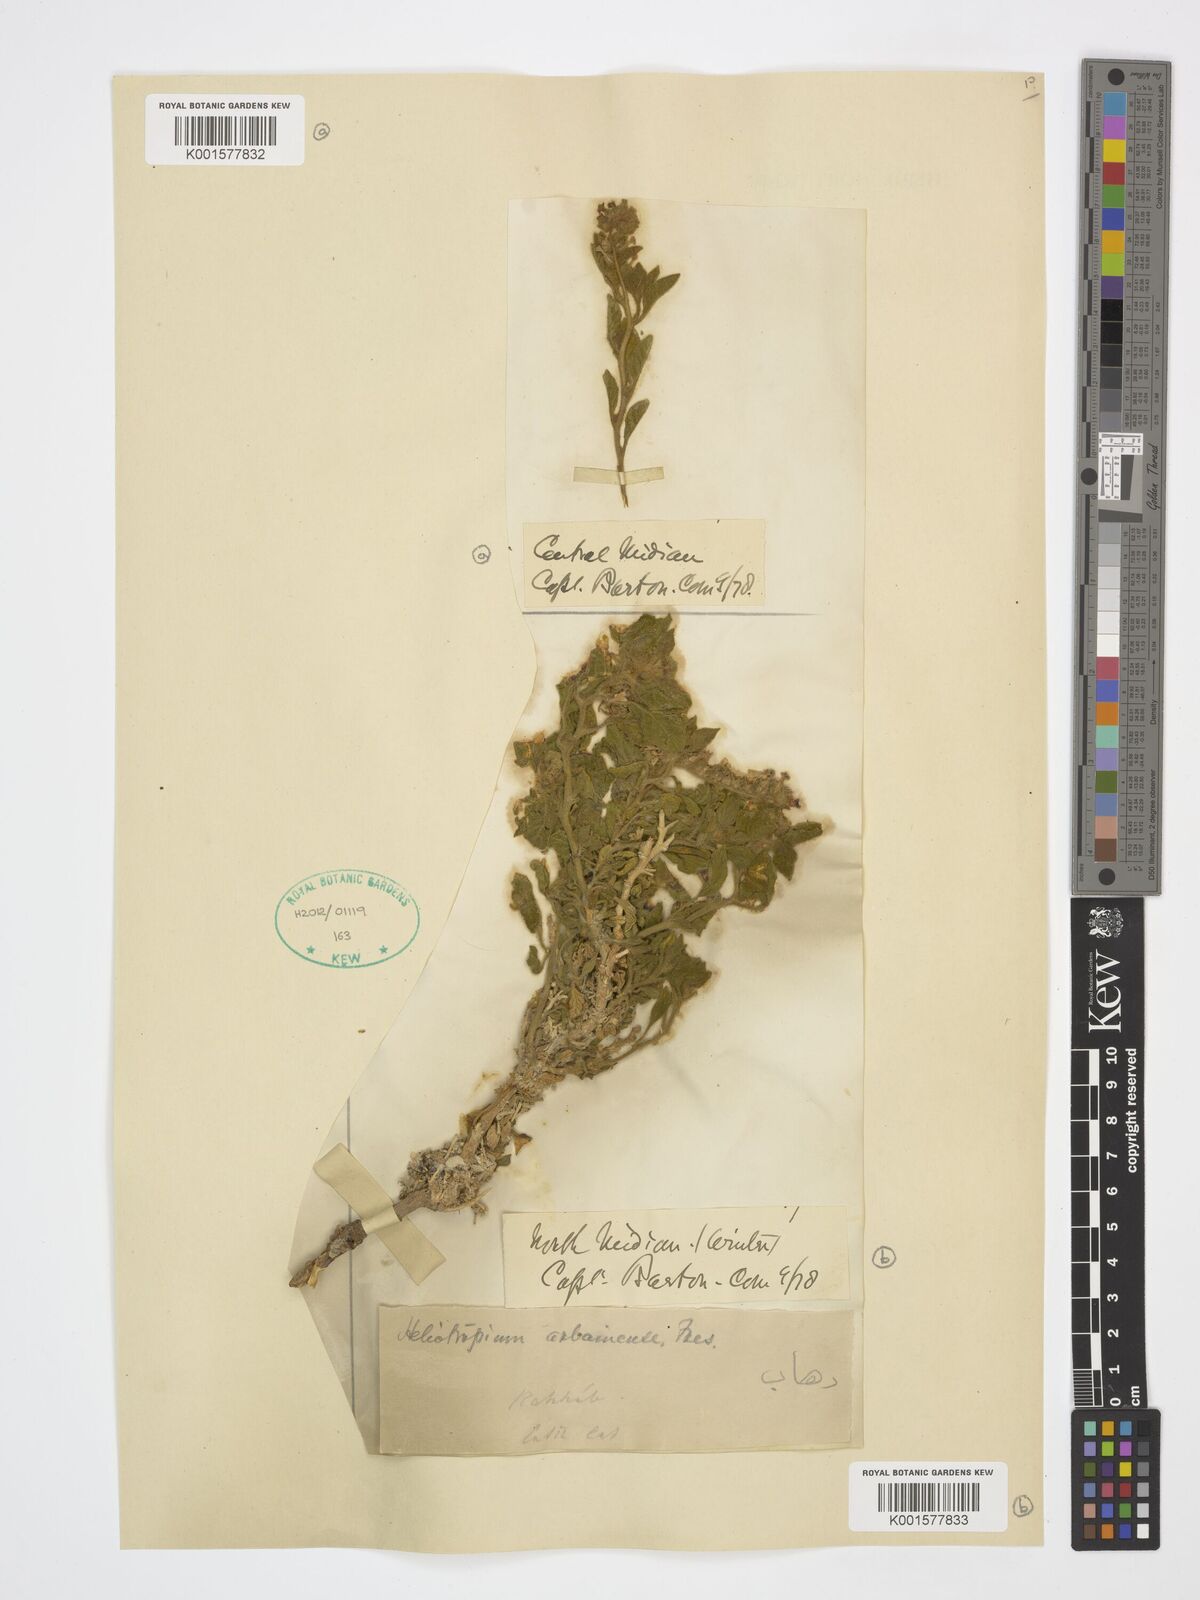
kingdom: Plantae
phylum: Tracheophyta
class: Magnoliopsida
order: Boraginales
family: Heliotropiaceae
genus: Heliotropium
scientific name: Heliotropium arbainense
